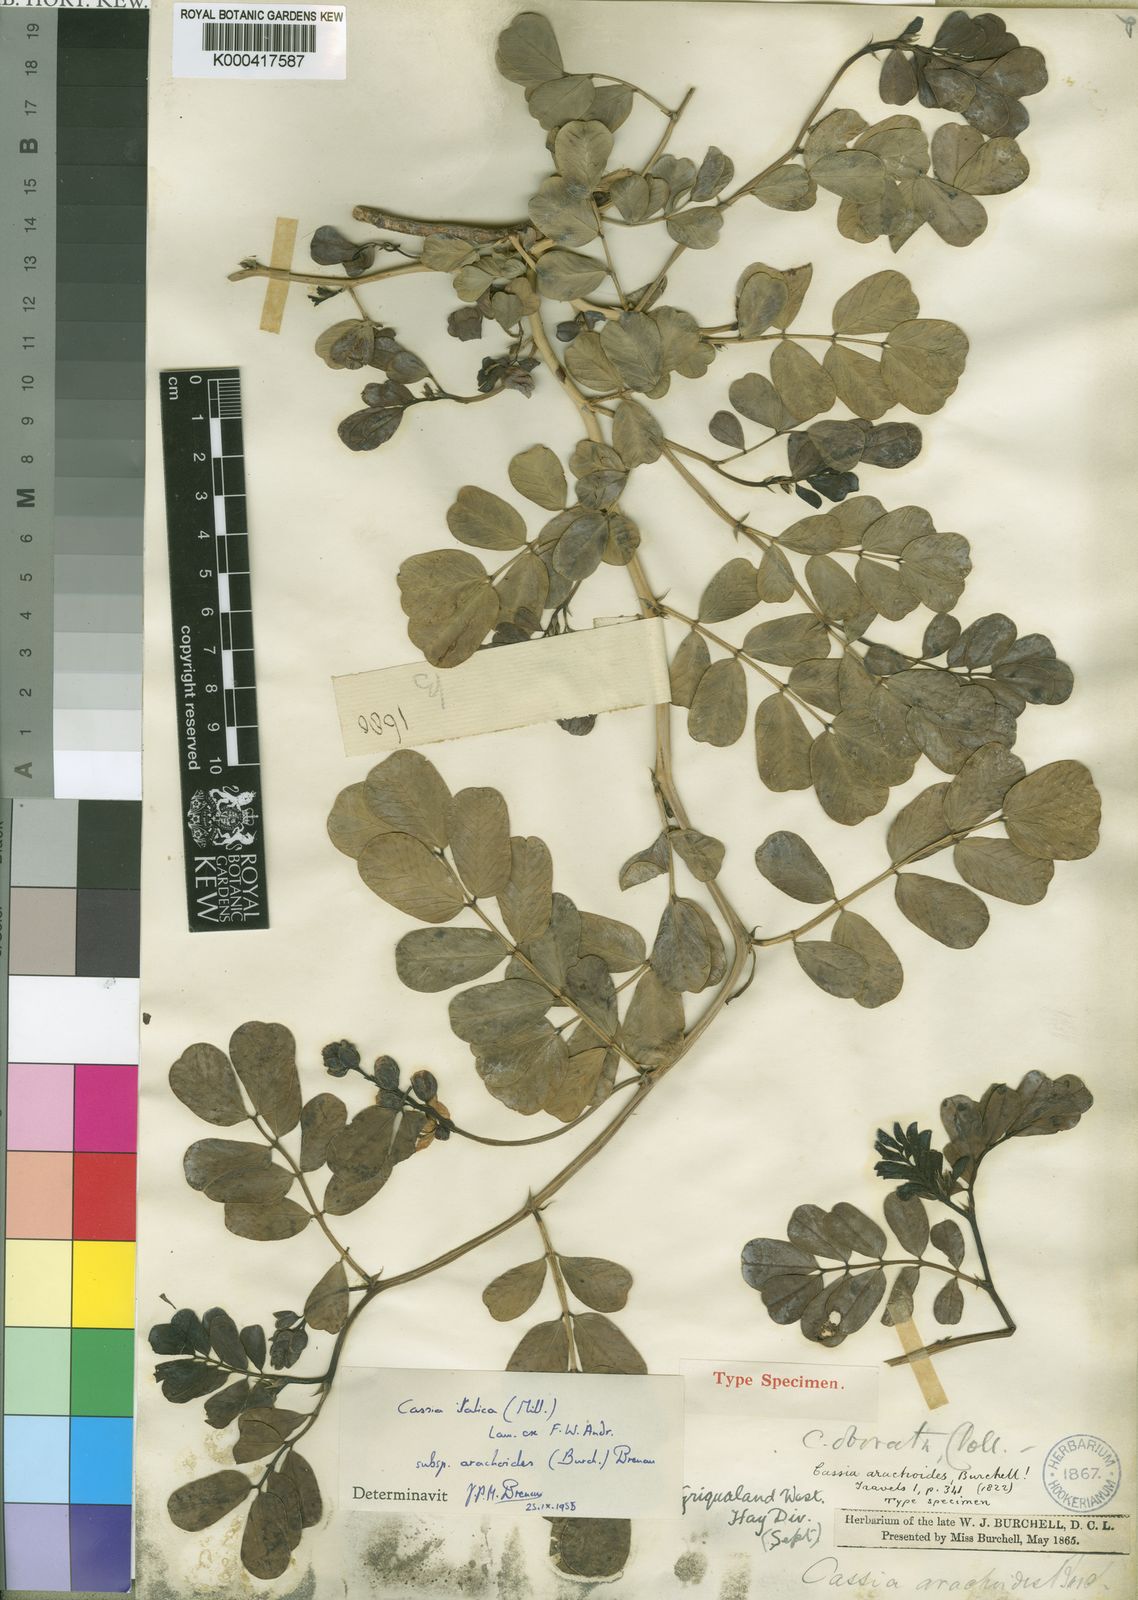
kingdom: Plantae
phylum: Tracheophyta
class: Magnoliopsida
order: Fabales
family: Fabaceae
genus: Cassia
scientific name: Cassia
